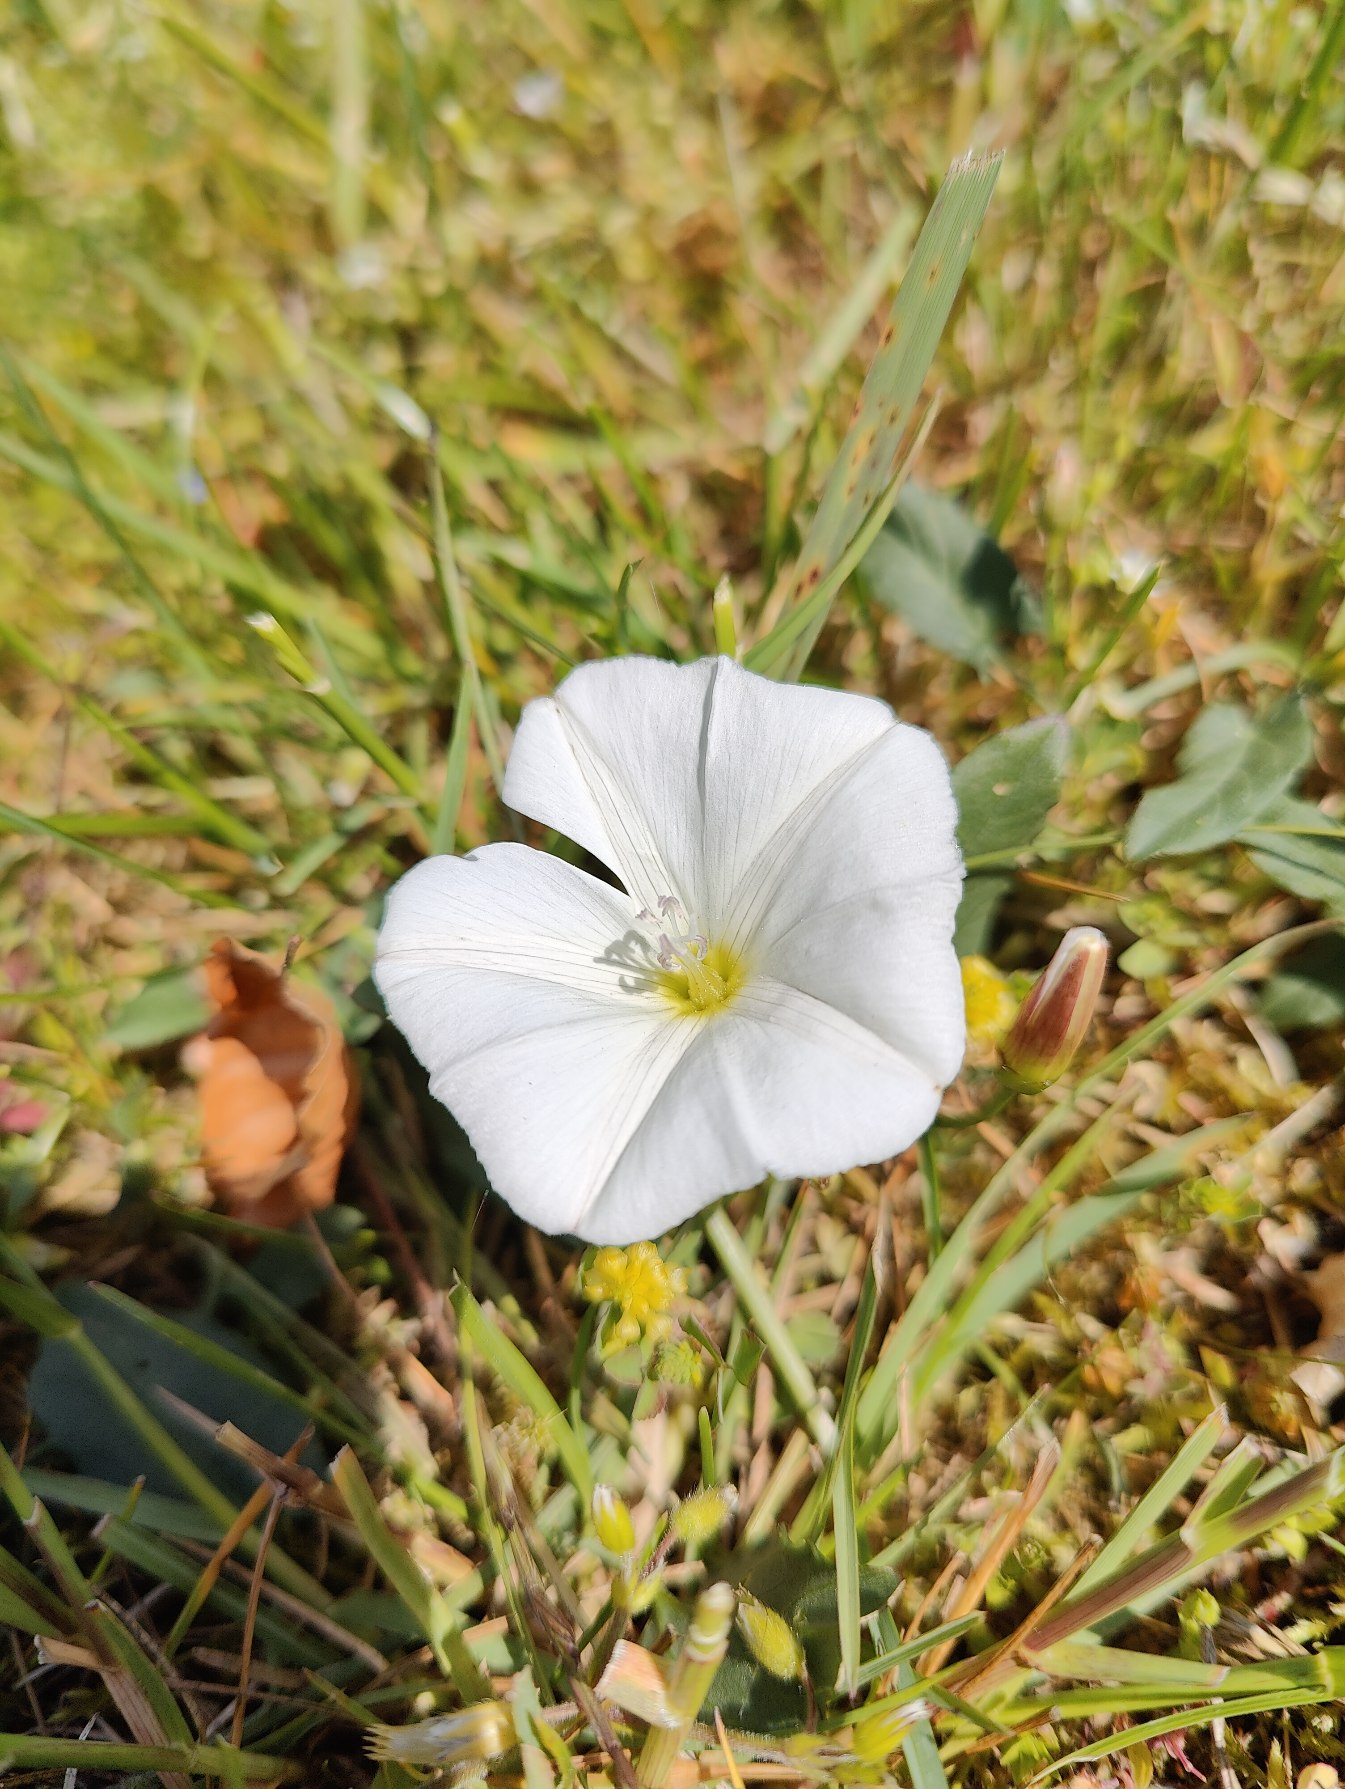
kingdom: Plantae
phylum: Tracheophyta
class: Magnoliopsida
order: Solanales
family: Convolvulaceae
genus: Convolvulus
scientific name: Convolvulus arvensis
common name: Ager-snerle
